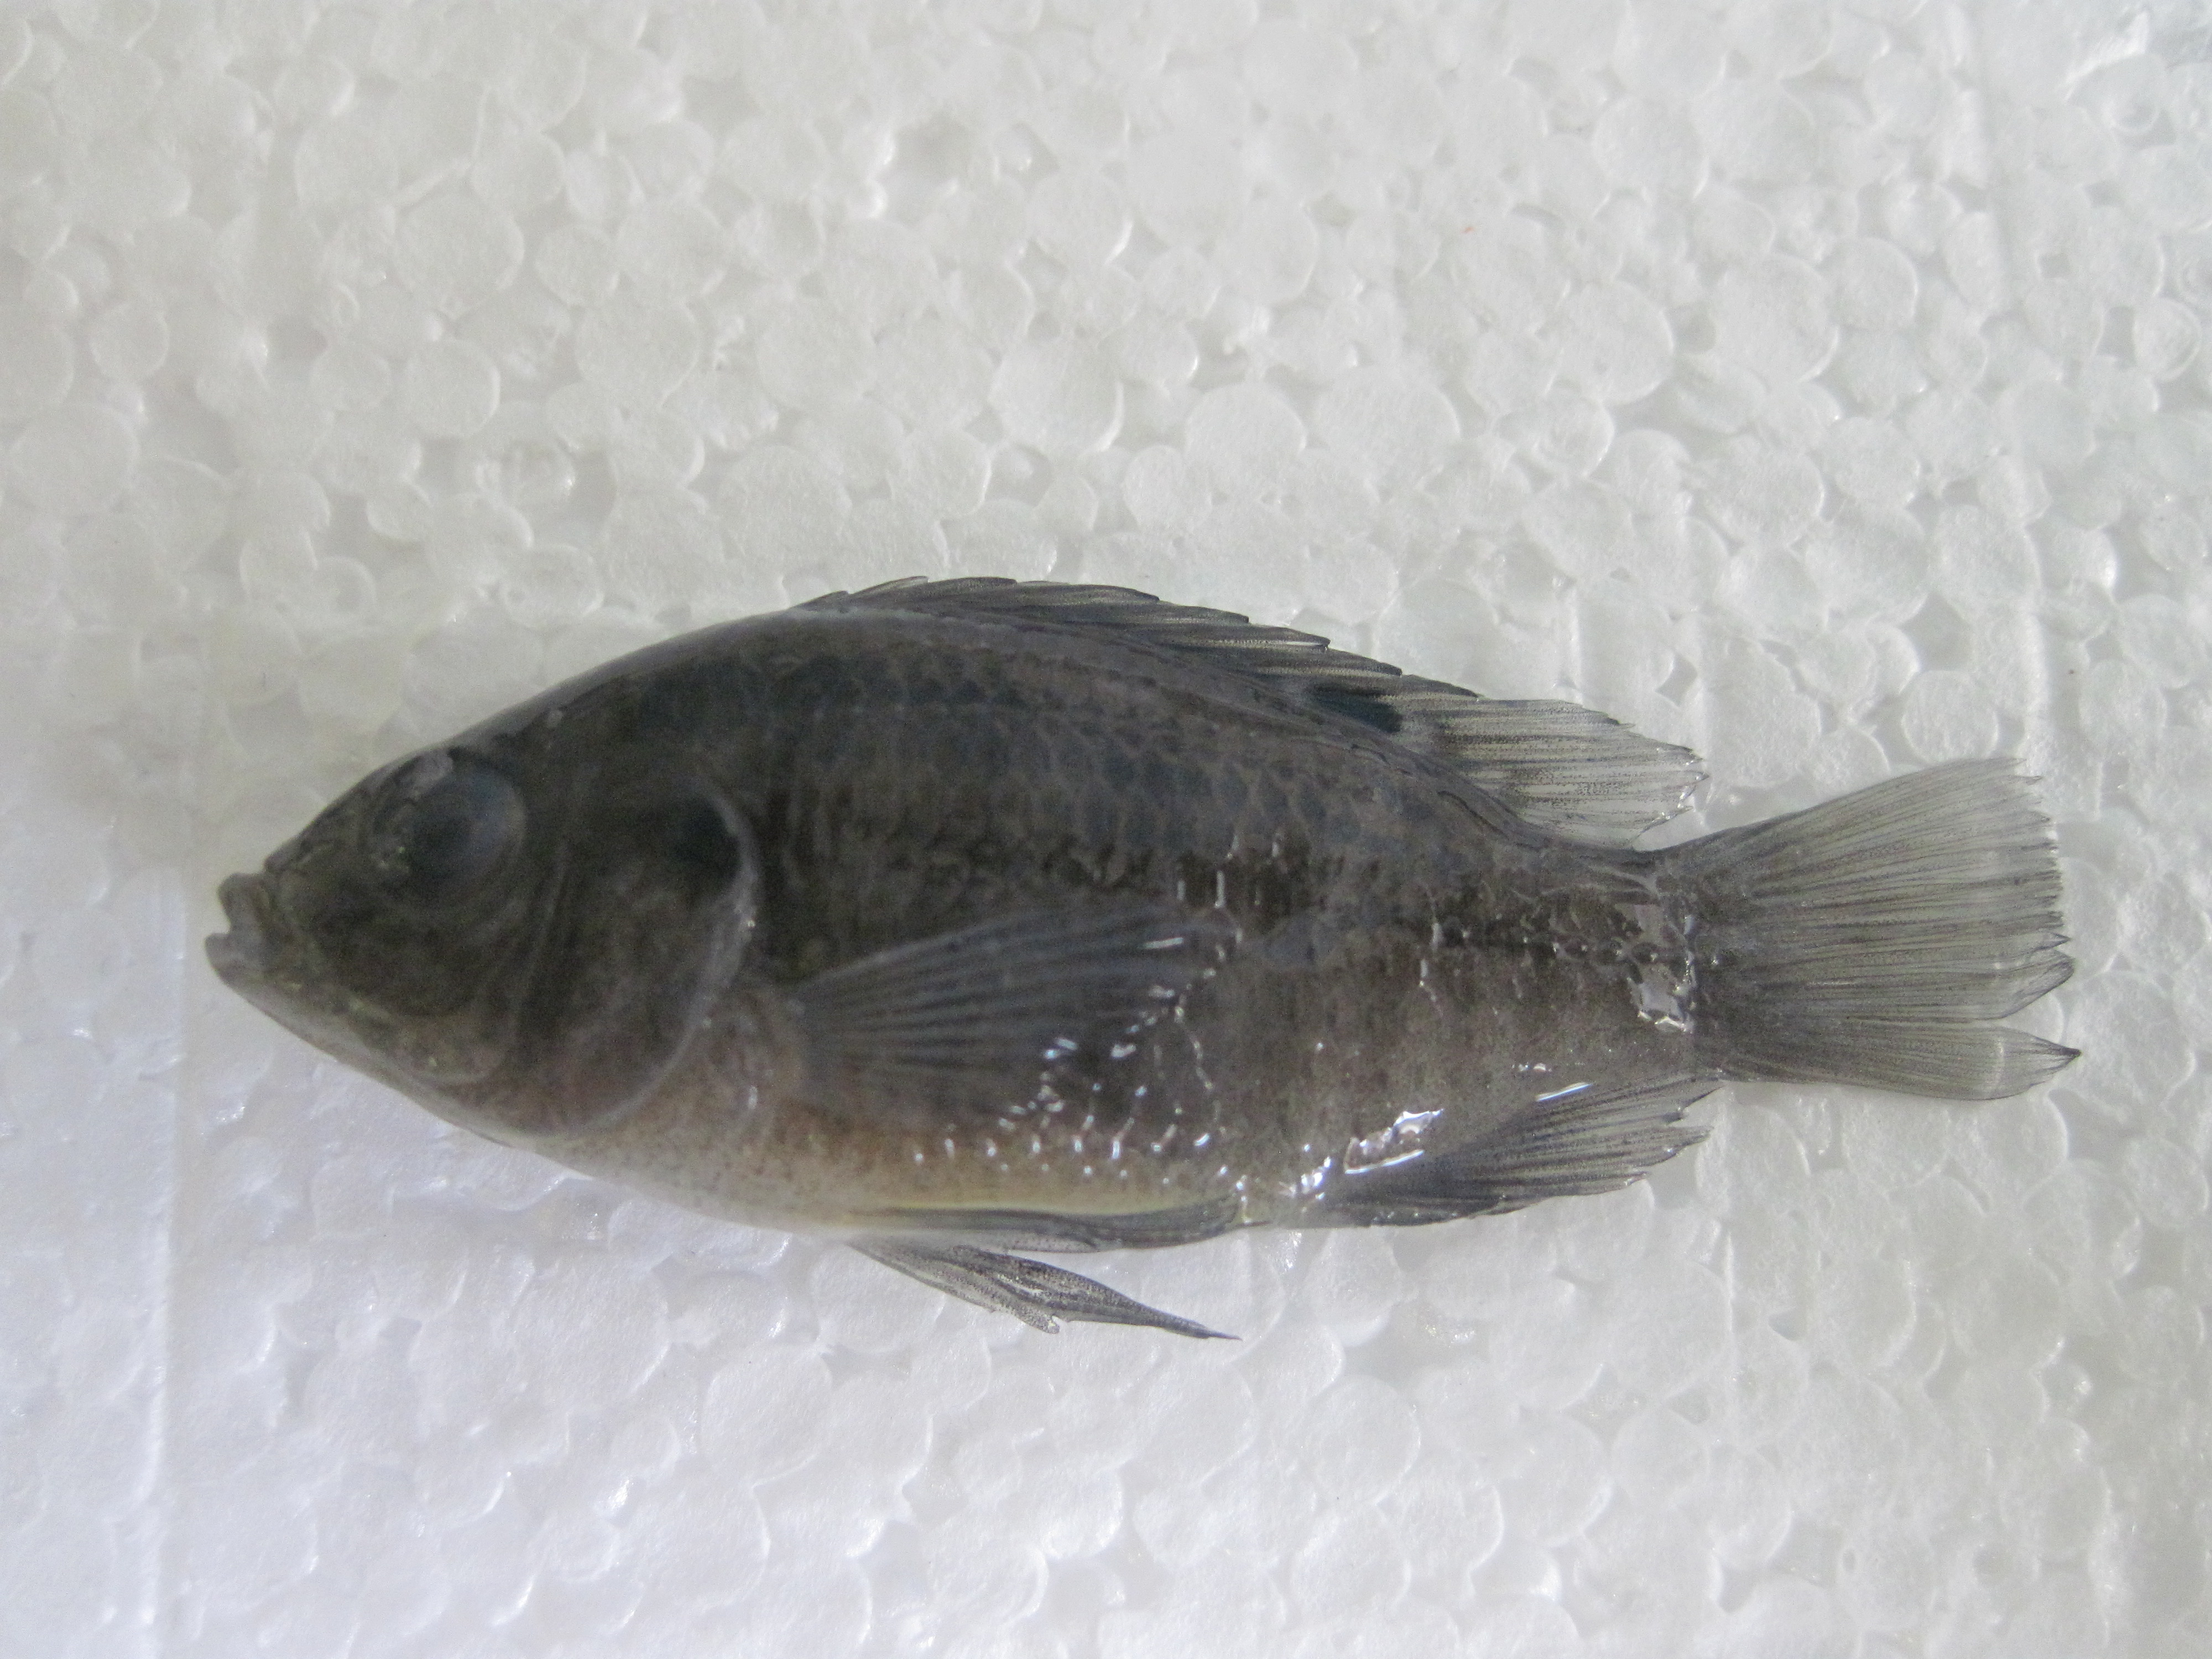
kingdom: Animalia
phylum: Chordata
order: Perciformes
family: Cichlidae
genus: Tilapia
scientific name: Tilapia sparrmanii
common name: Banded tilapia
